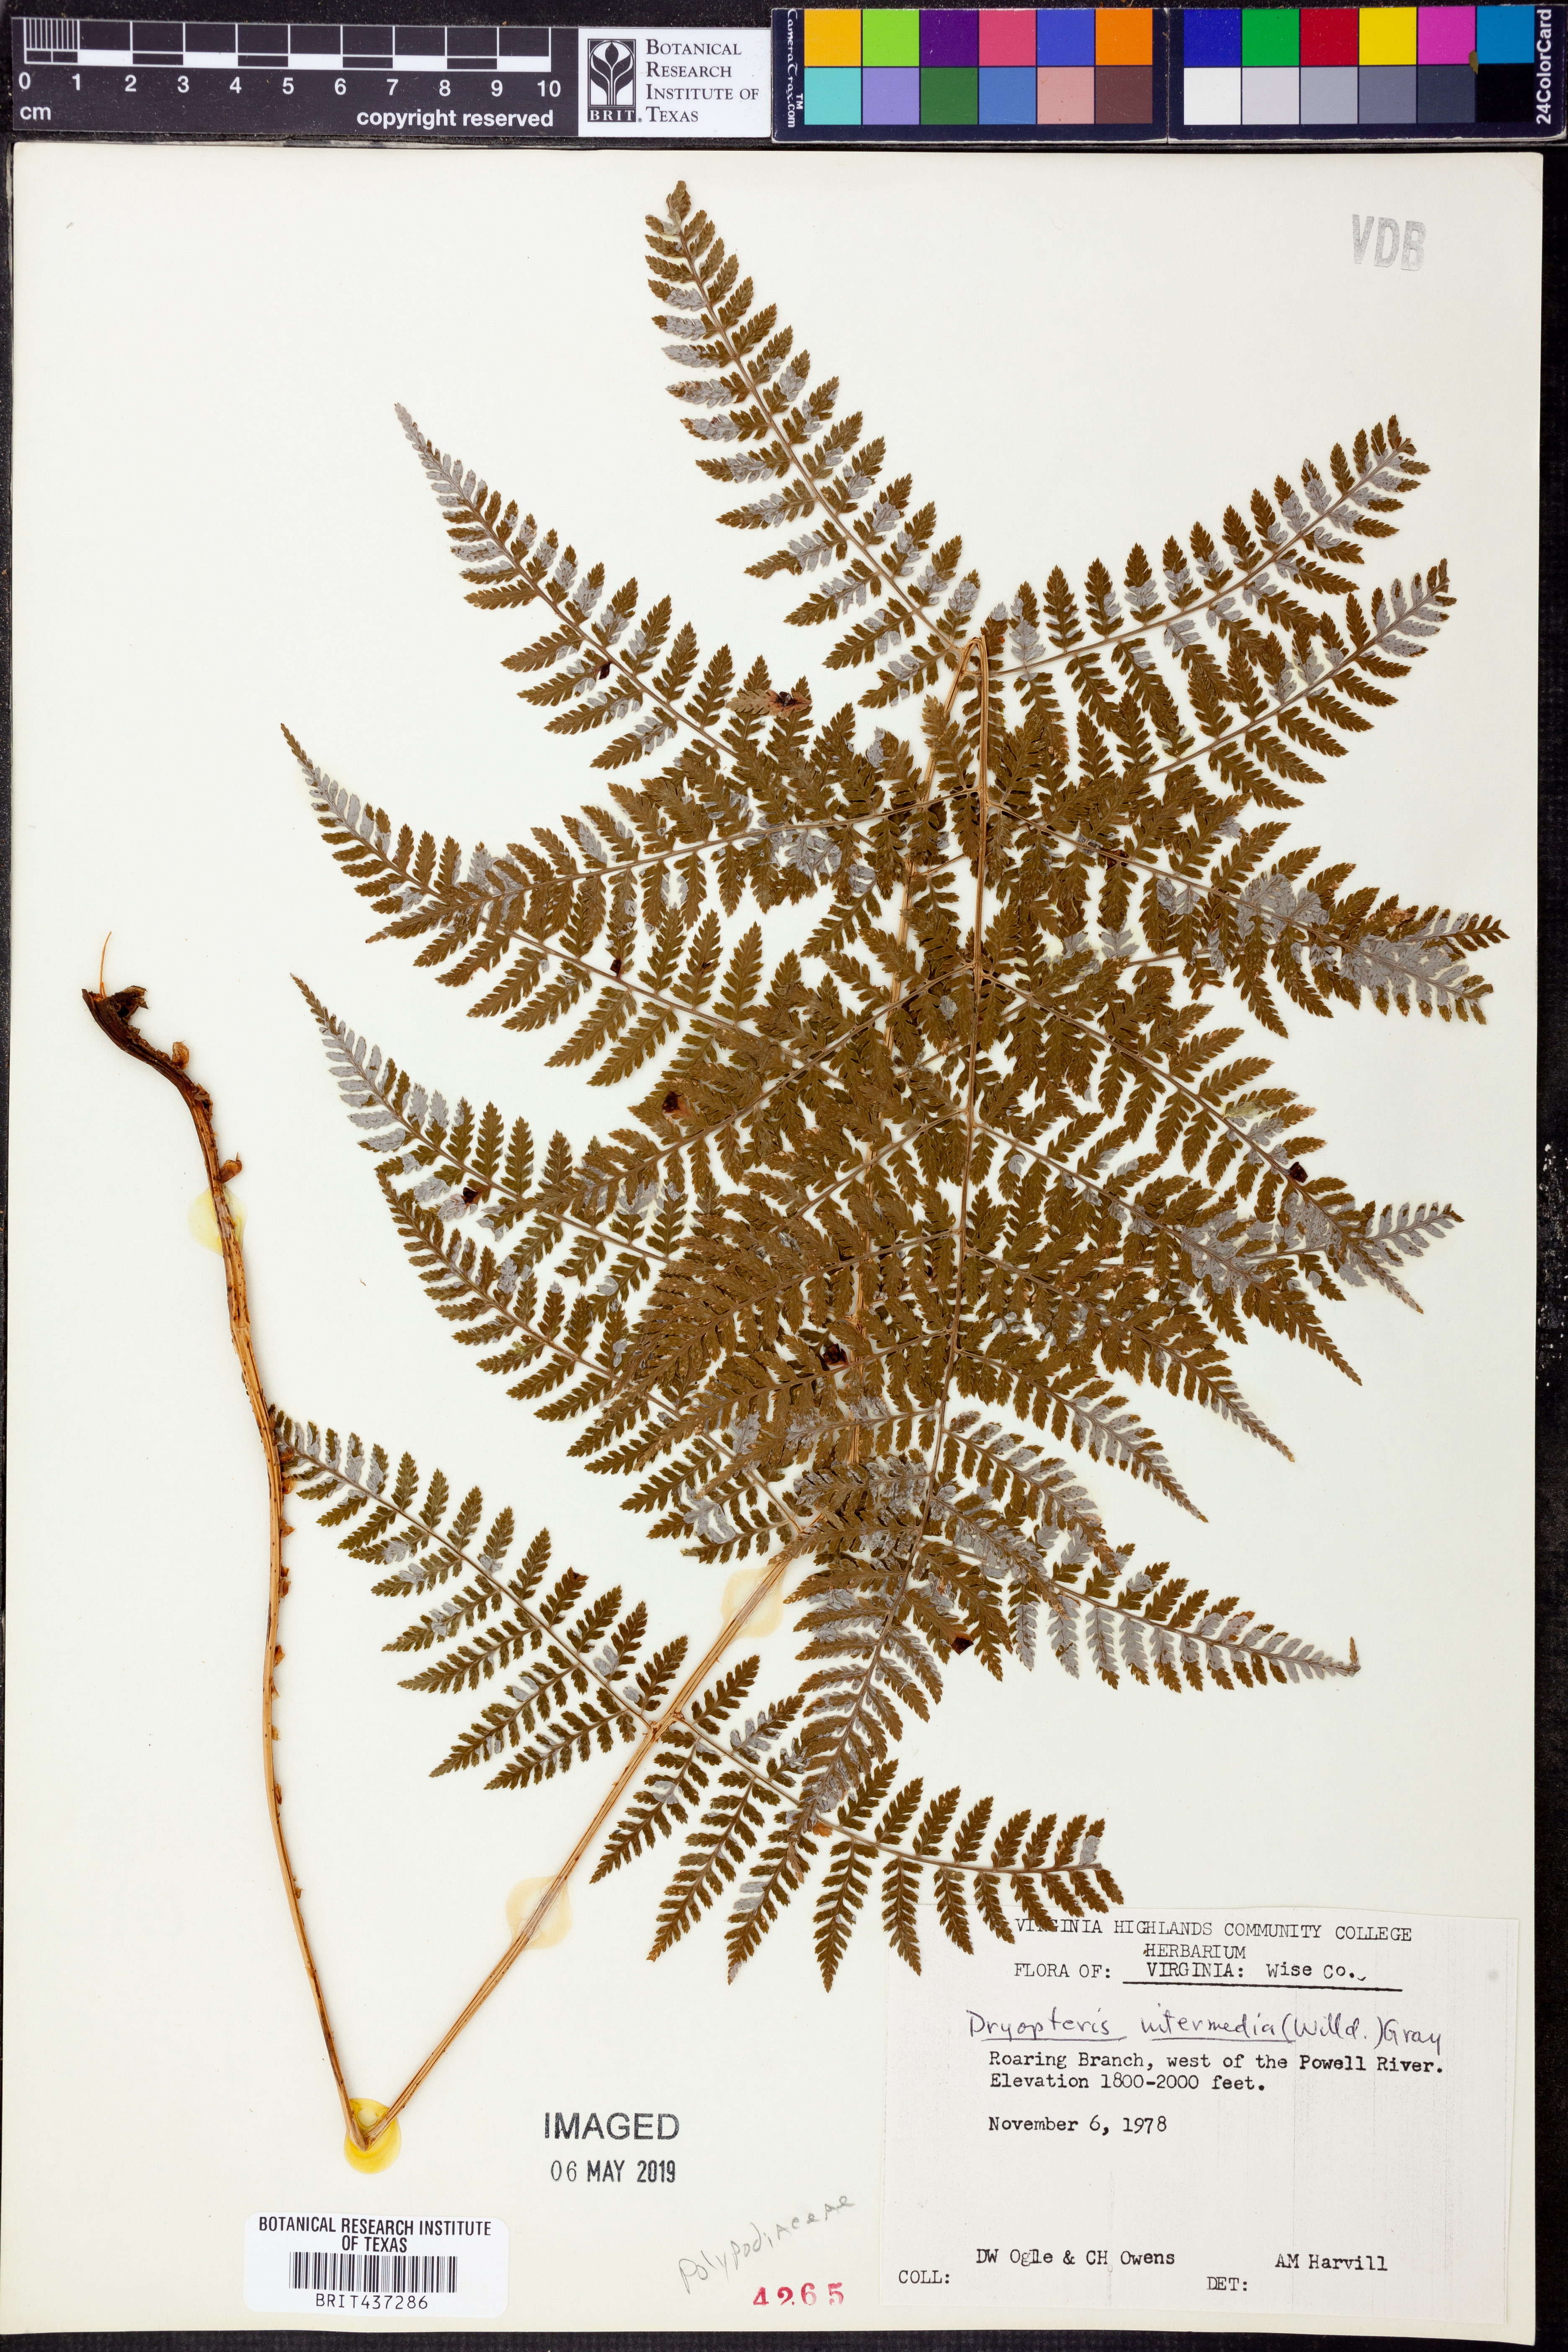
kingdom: Plantae
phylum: Tracheophyta
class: Polypodiopsida
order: Polypodiales
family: Dryopteridaceae
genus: Dryopteris
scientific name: Dryopteris intermedia
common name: Evergreen wood fern
